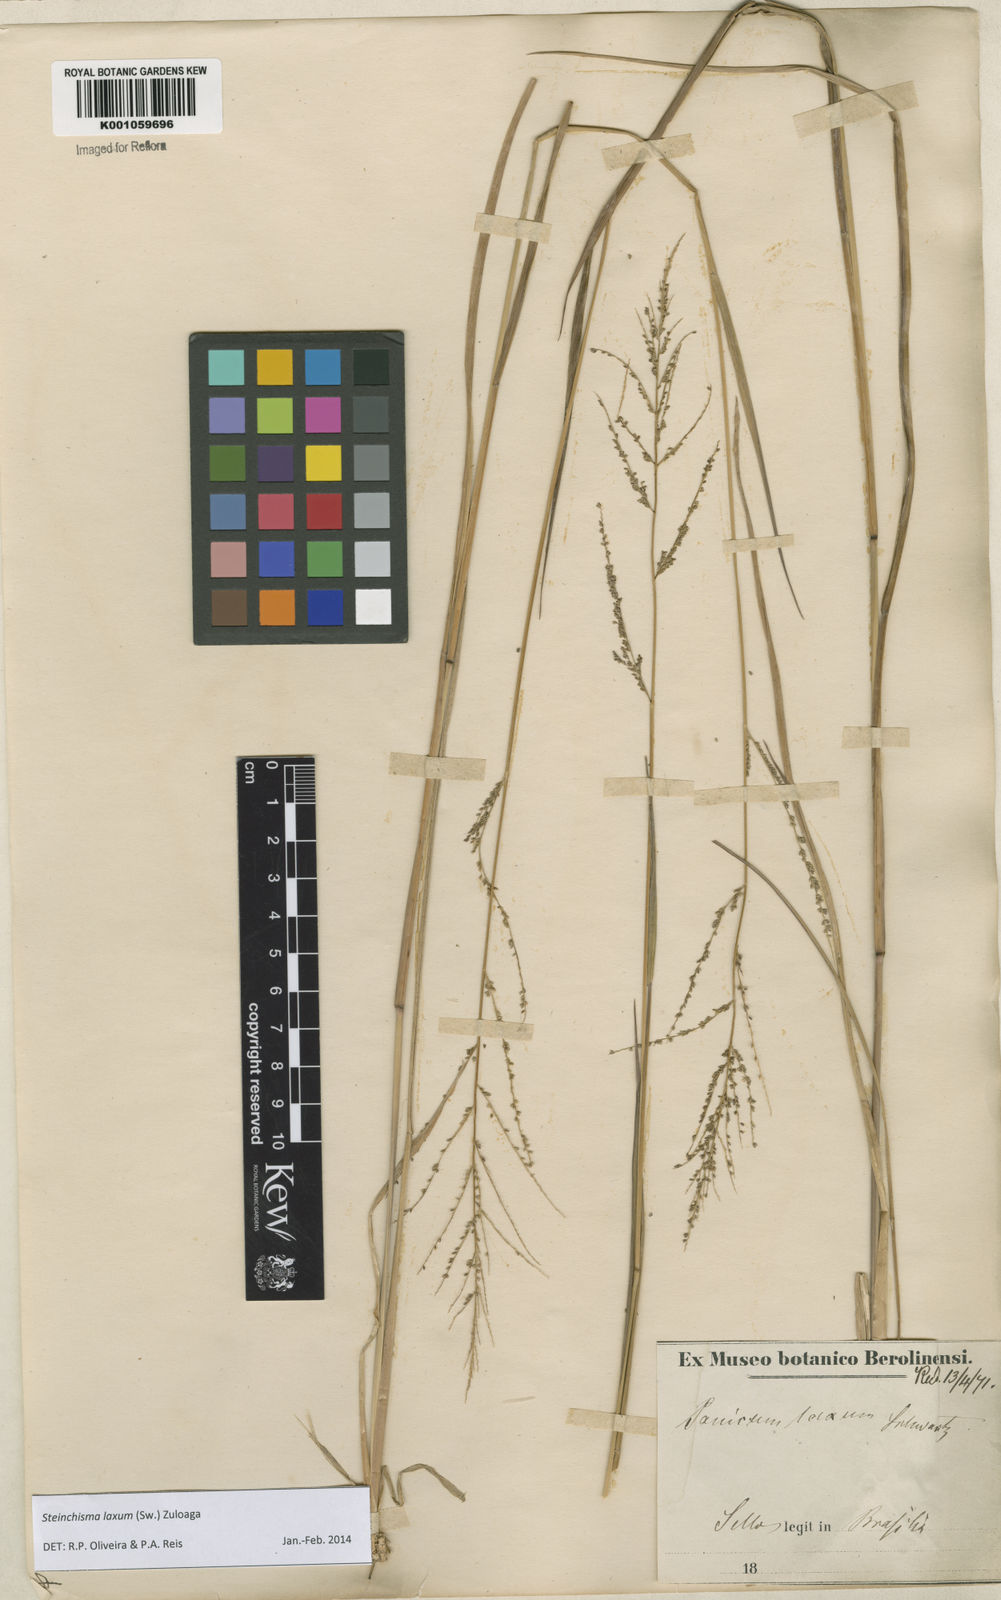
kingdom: Plantae
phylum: Tracheophyta
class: Liliopsida
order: Poales
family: Poaceae
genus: Steinchisma
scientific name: Steinchisma laxum
